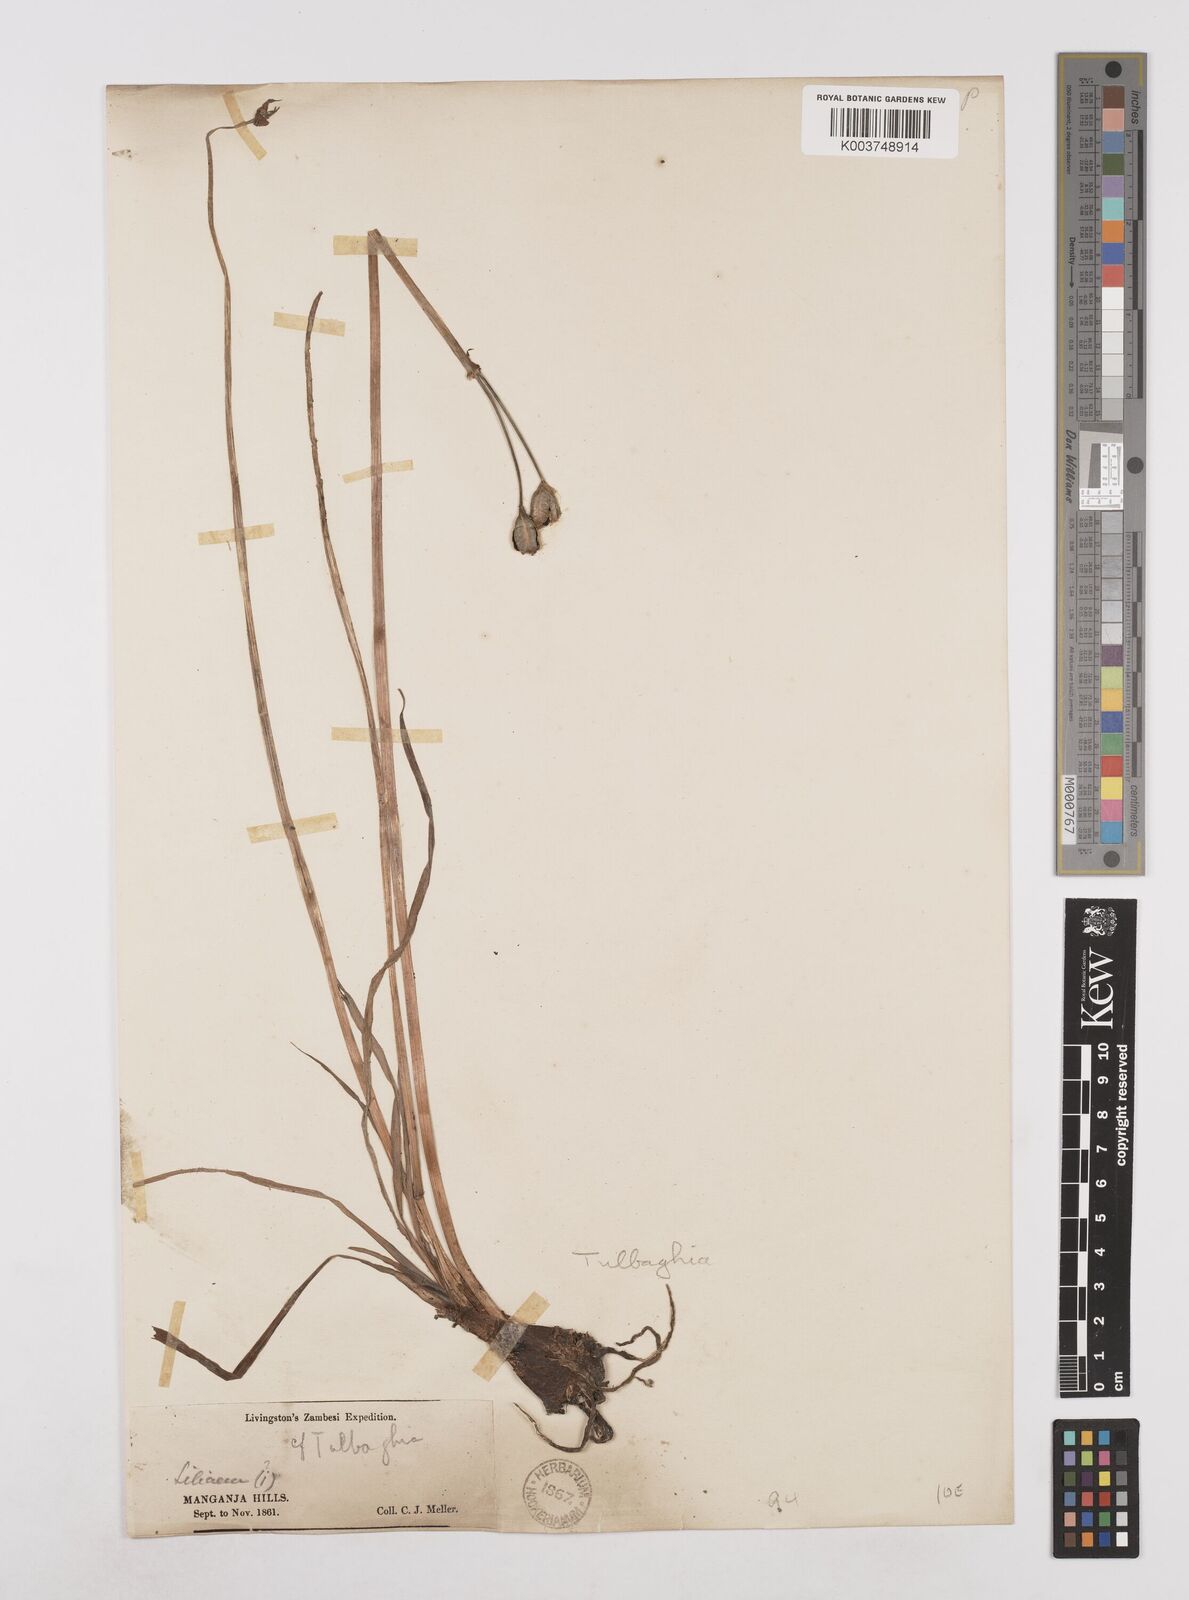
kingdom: Plantae
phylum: Tracheophyta
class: Liliopsida
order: Asparagales
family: Amaryllidaceae
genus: Tulbaghia
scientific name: Tulbaghia
